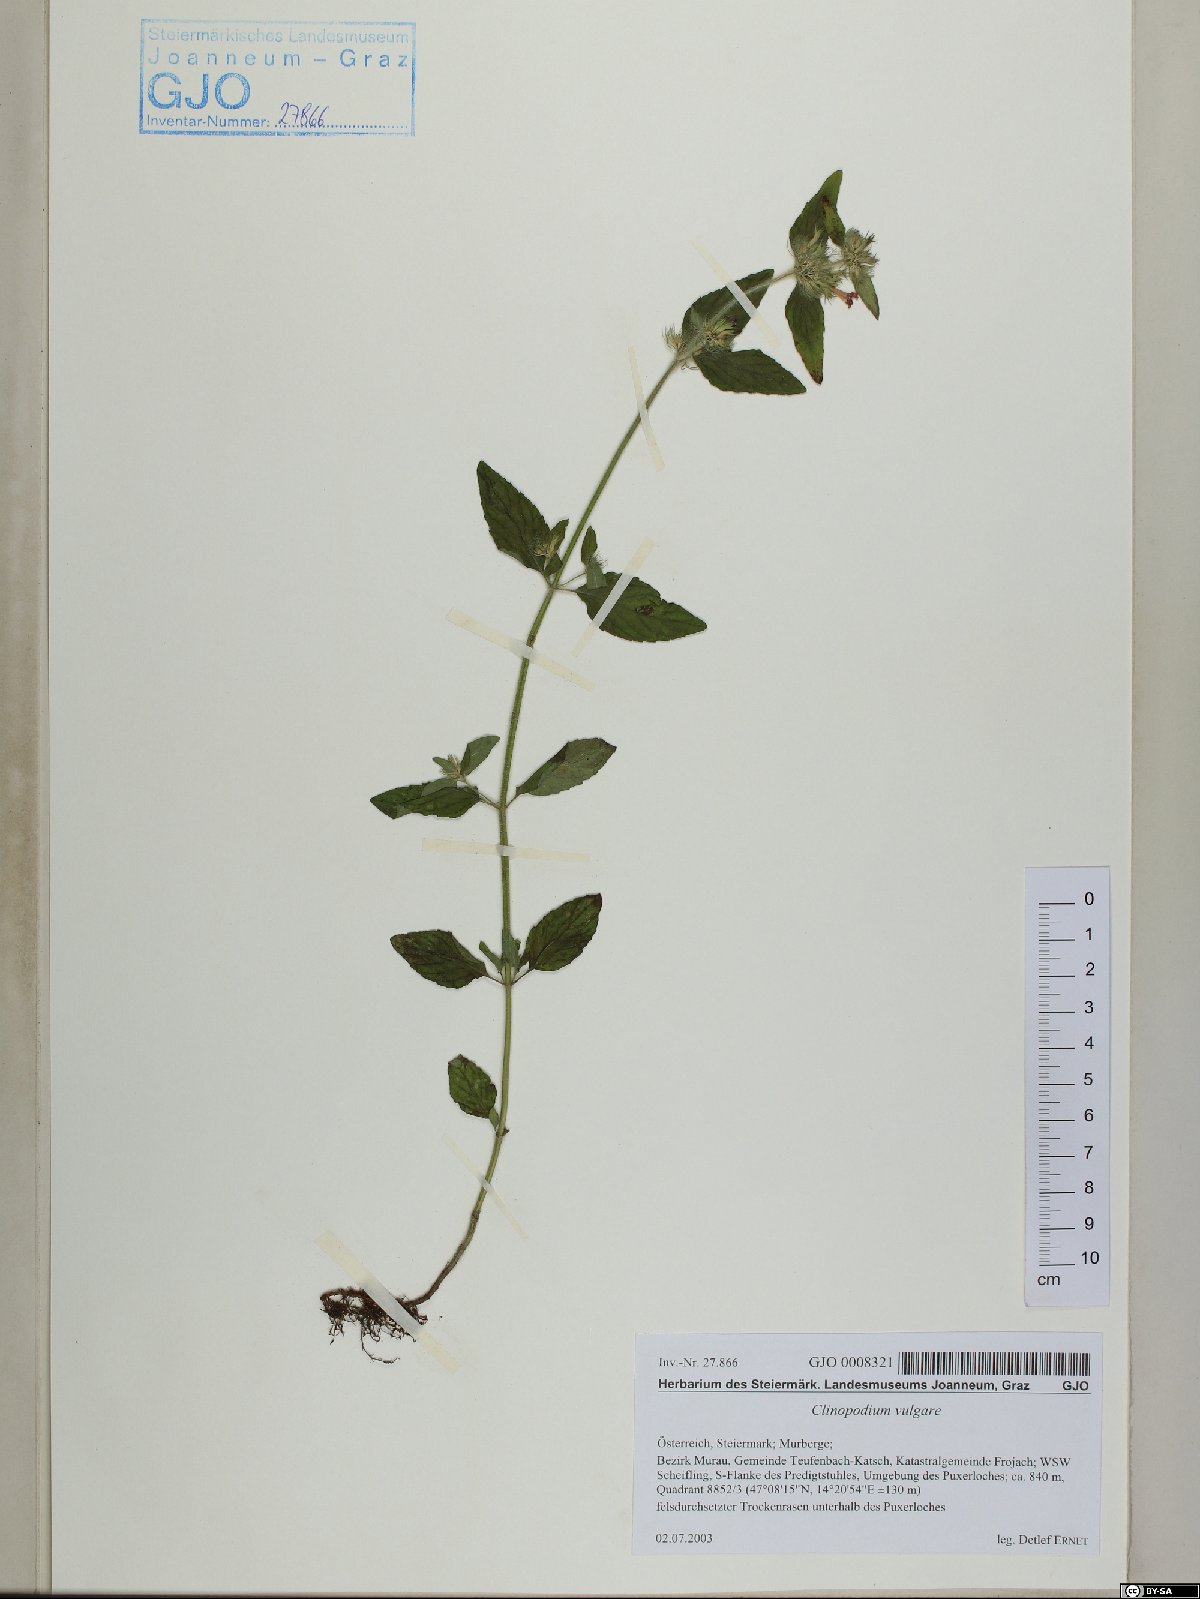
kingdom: Plantae
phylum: Tracheophyta
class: Magnoliopsida
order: Lamiales
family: Lamiaceae
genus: Clinopodium
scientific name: Clinopodium vulgare
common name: Wild basil
